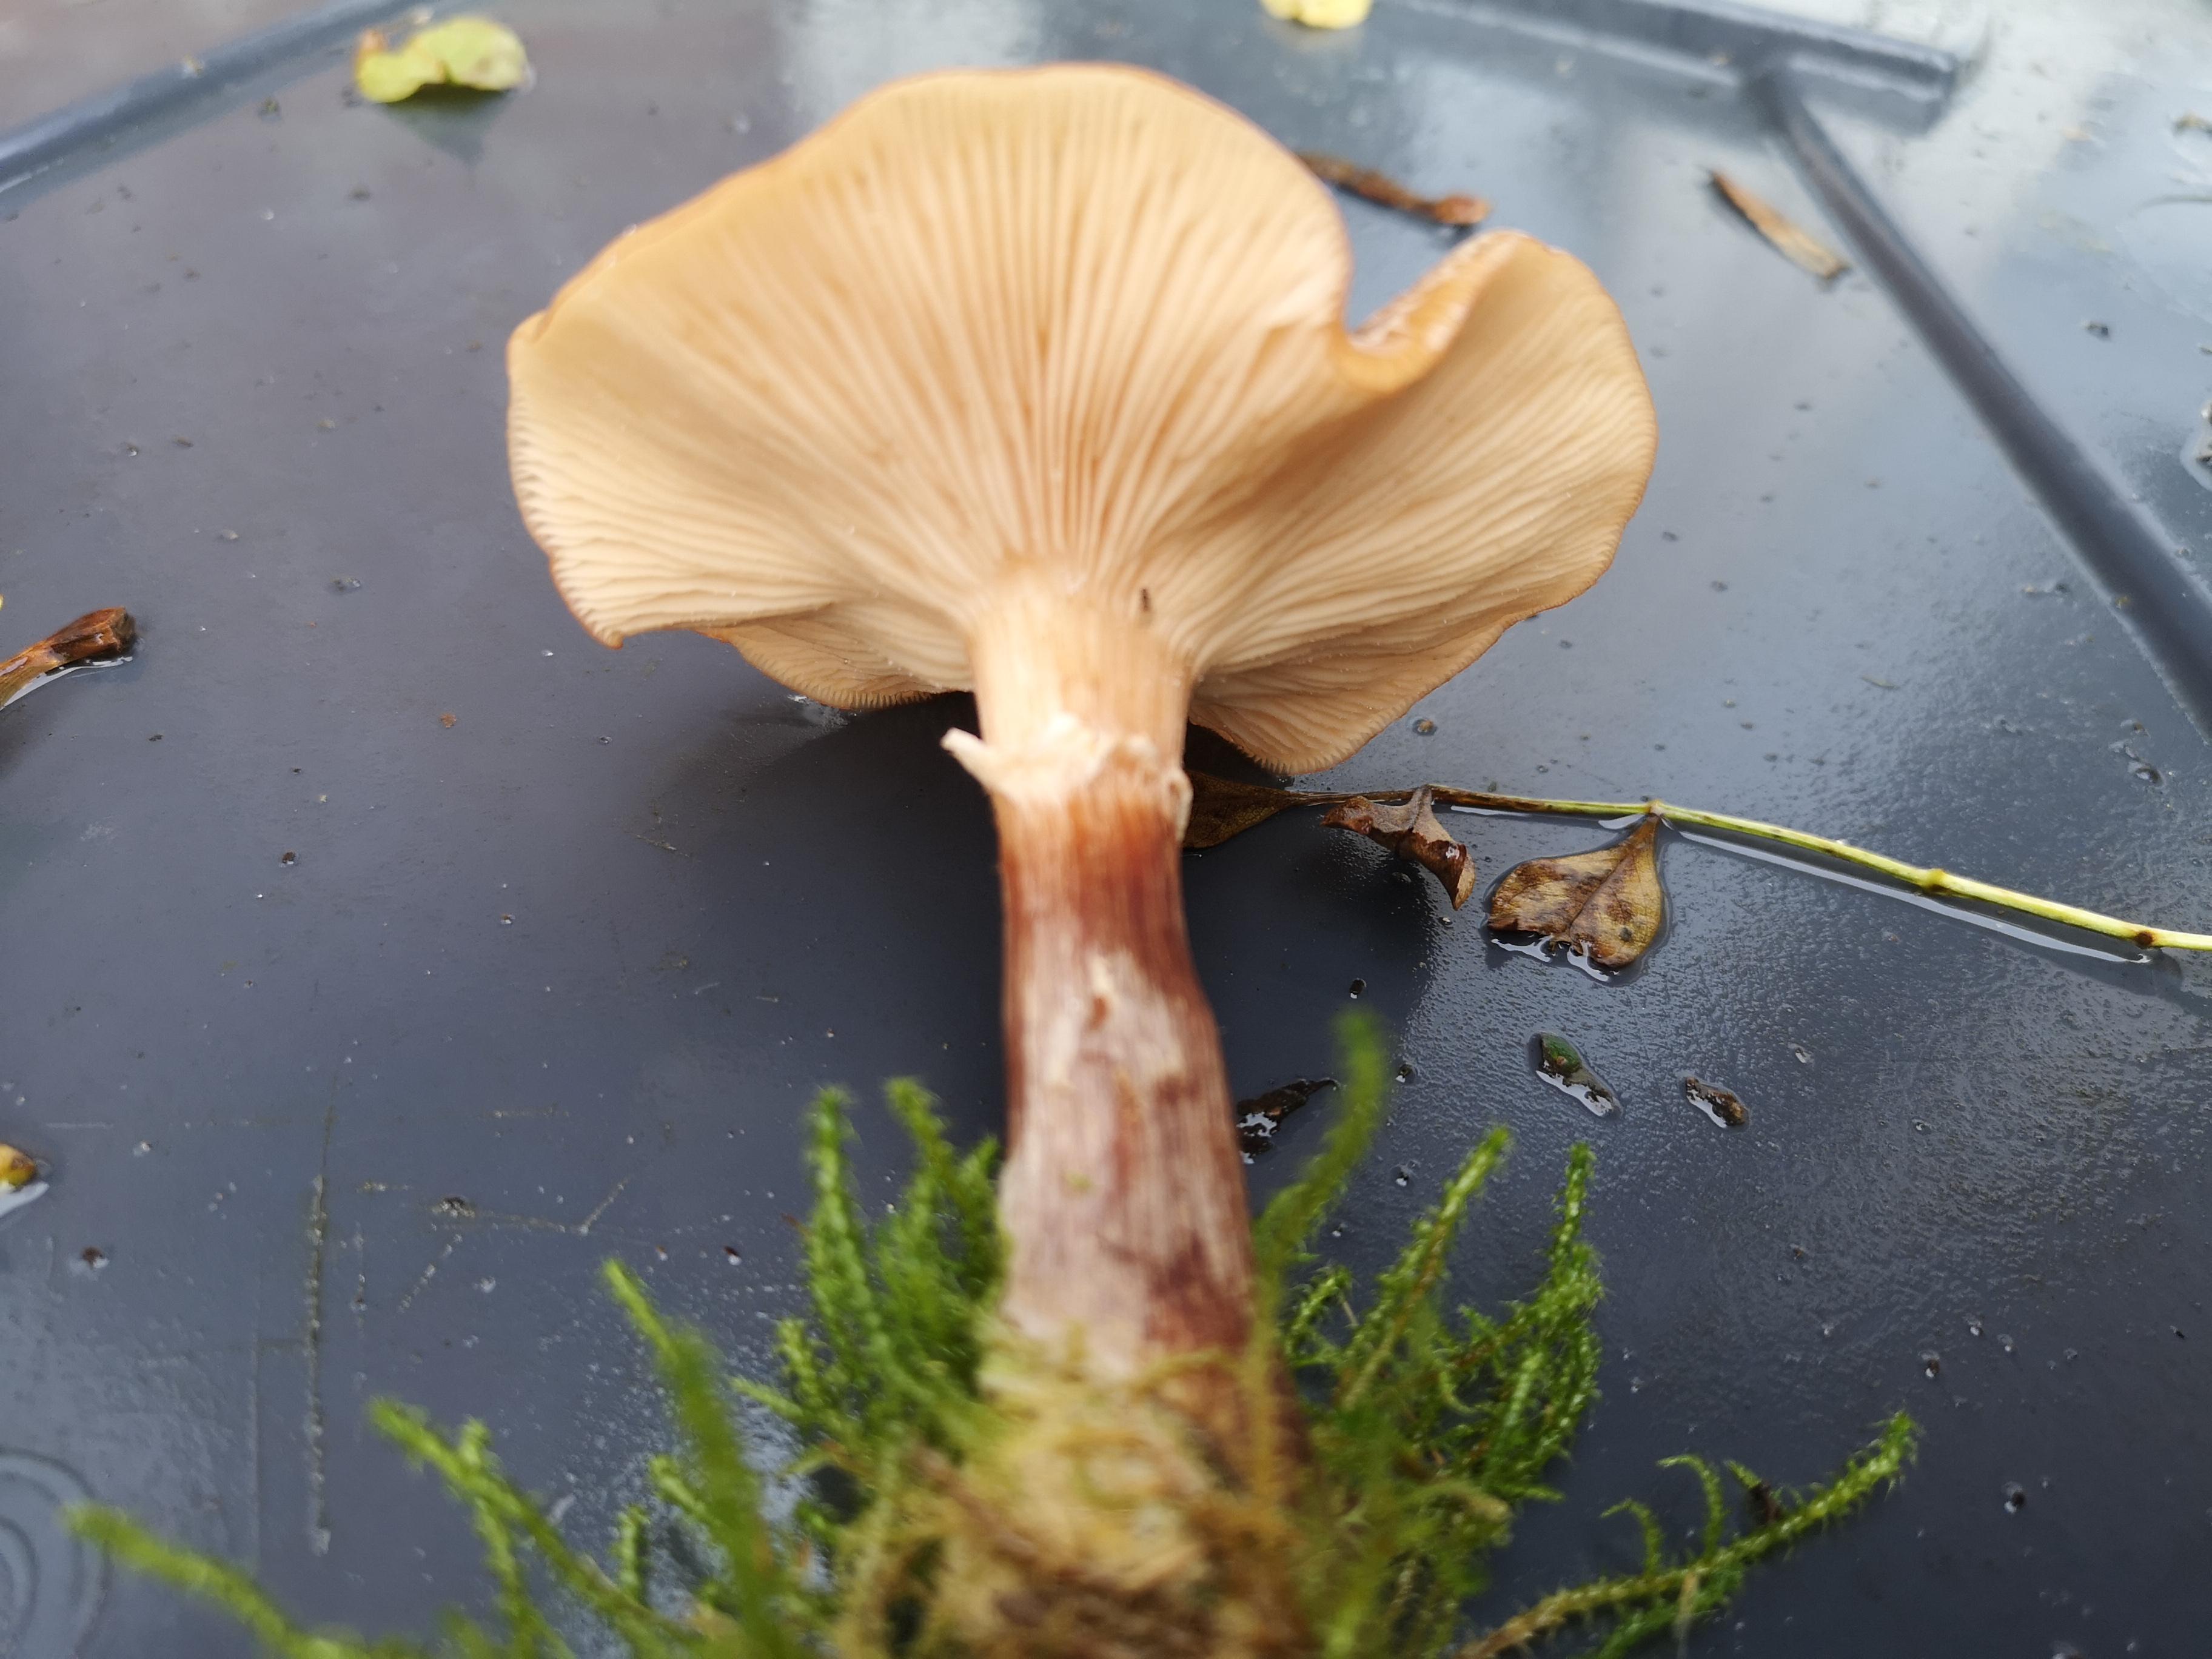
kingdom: Fungi
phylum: Basidiomycota
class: Agaricomycetes
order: Agaricales
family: Physalacriaceae
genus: Armillaria
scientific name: Armillaria lutea
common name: køllestokket honningsvamp
